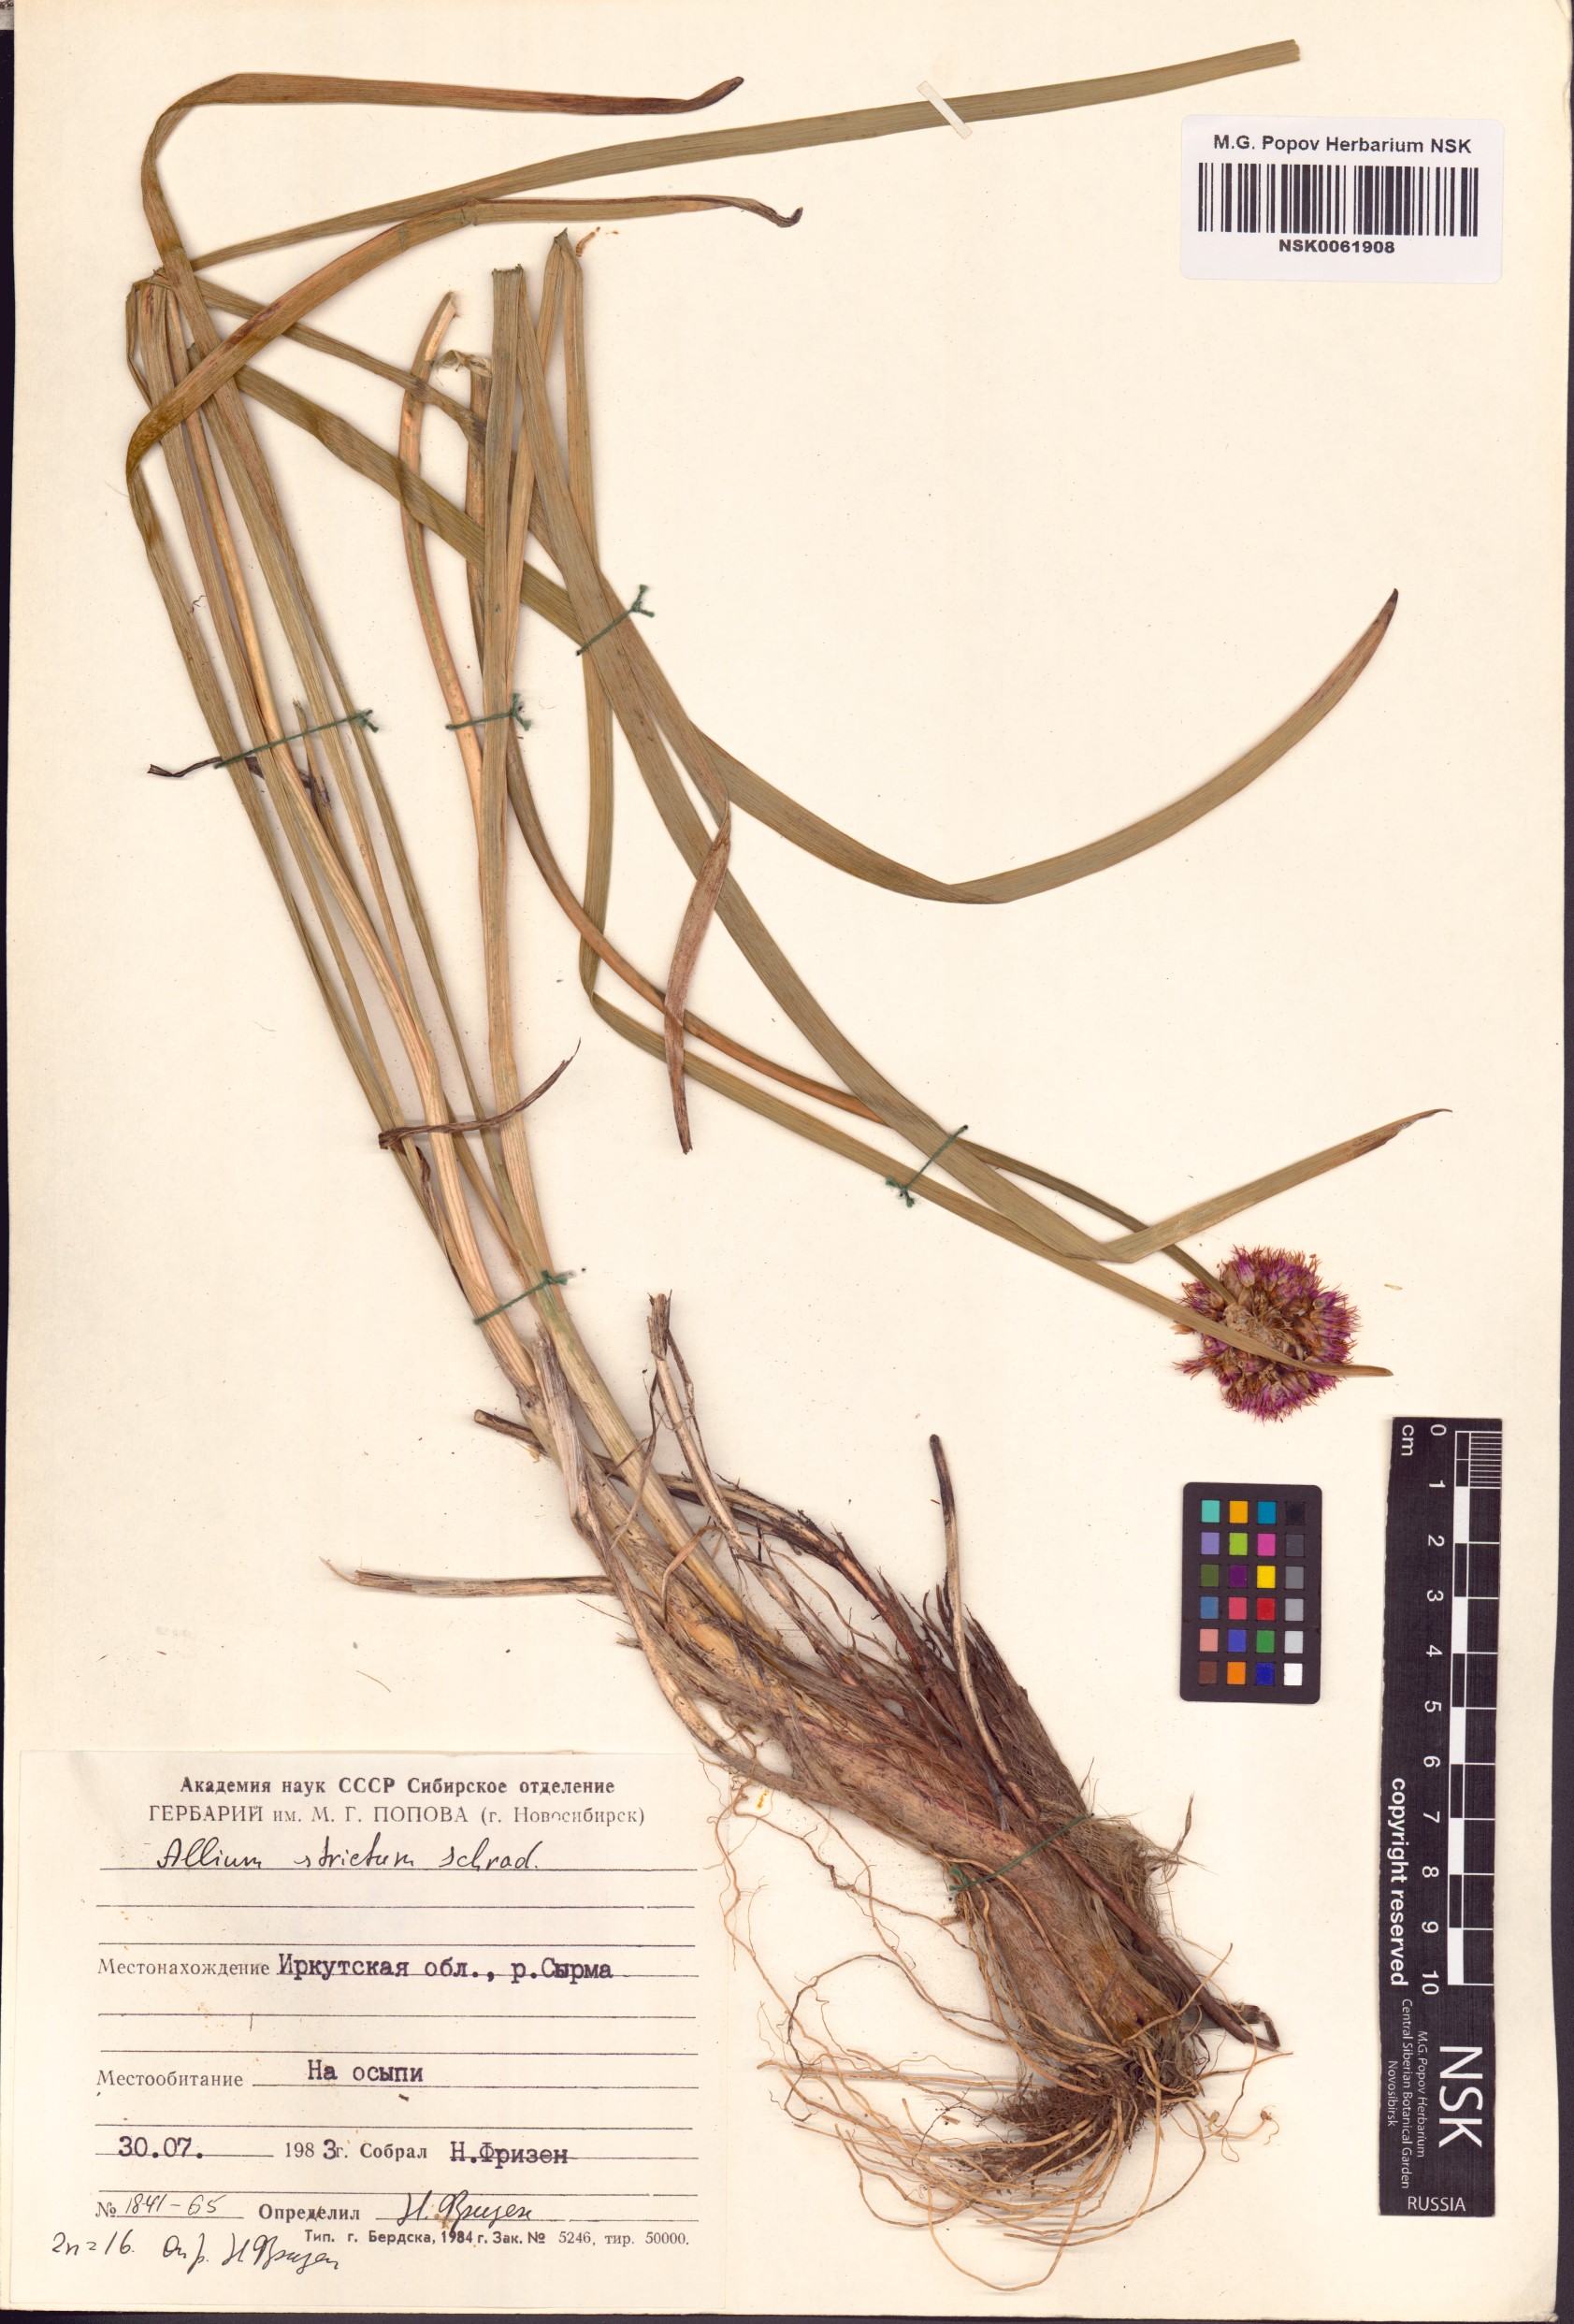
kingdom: Plantae
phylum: Tracheophyta
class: Liliopsida
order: Asparagales
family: Amaryllidaceae
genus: Allium
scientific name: Allium strictum
